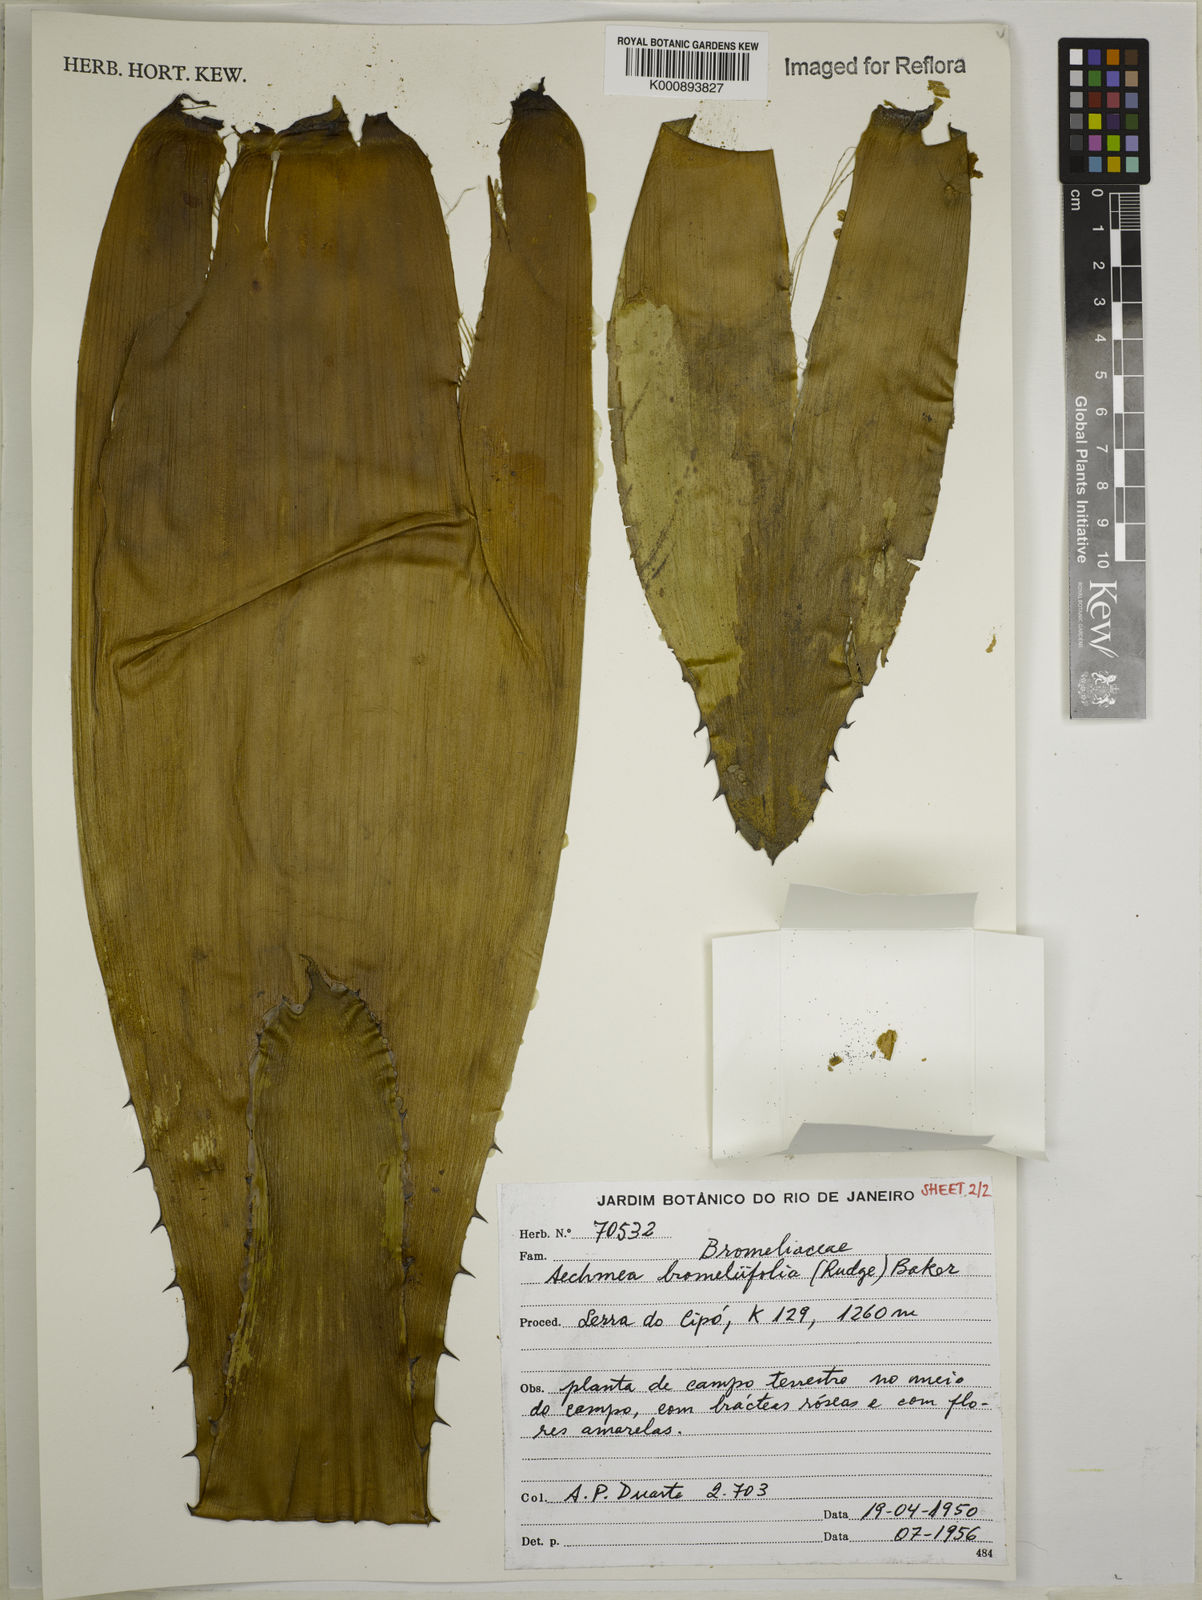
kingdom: Plantae
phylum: Tracheophyta
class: Liliopsida
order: Poales
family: Bromeliaceae
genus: Aechmea
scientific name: Aechmea
